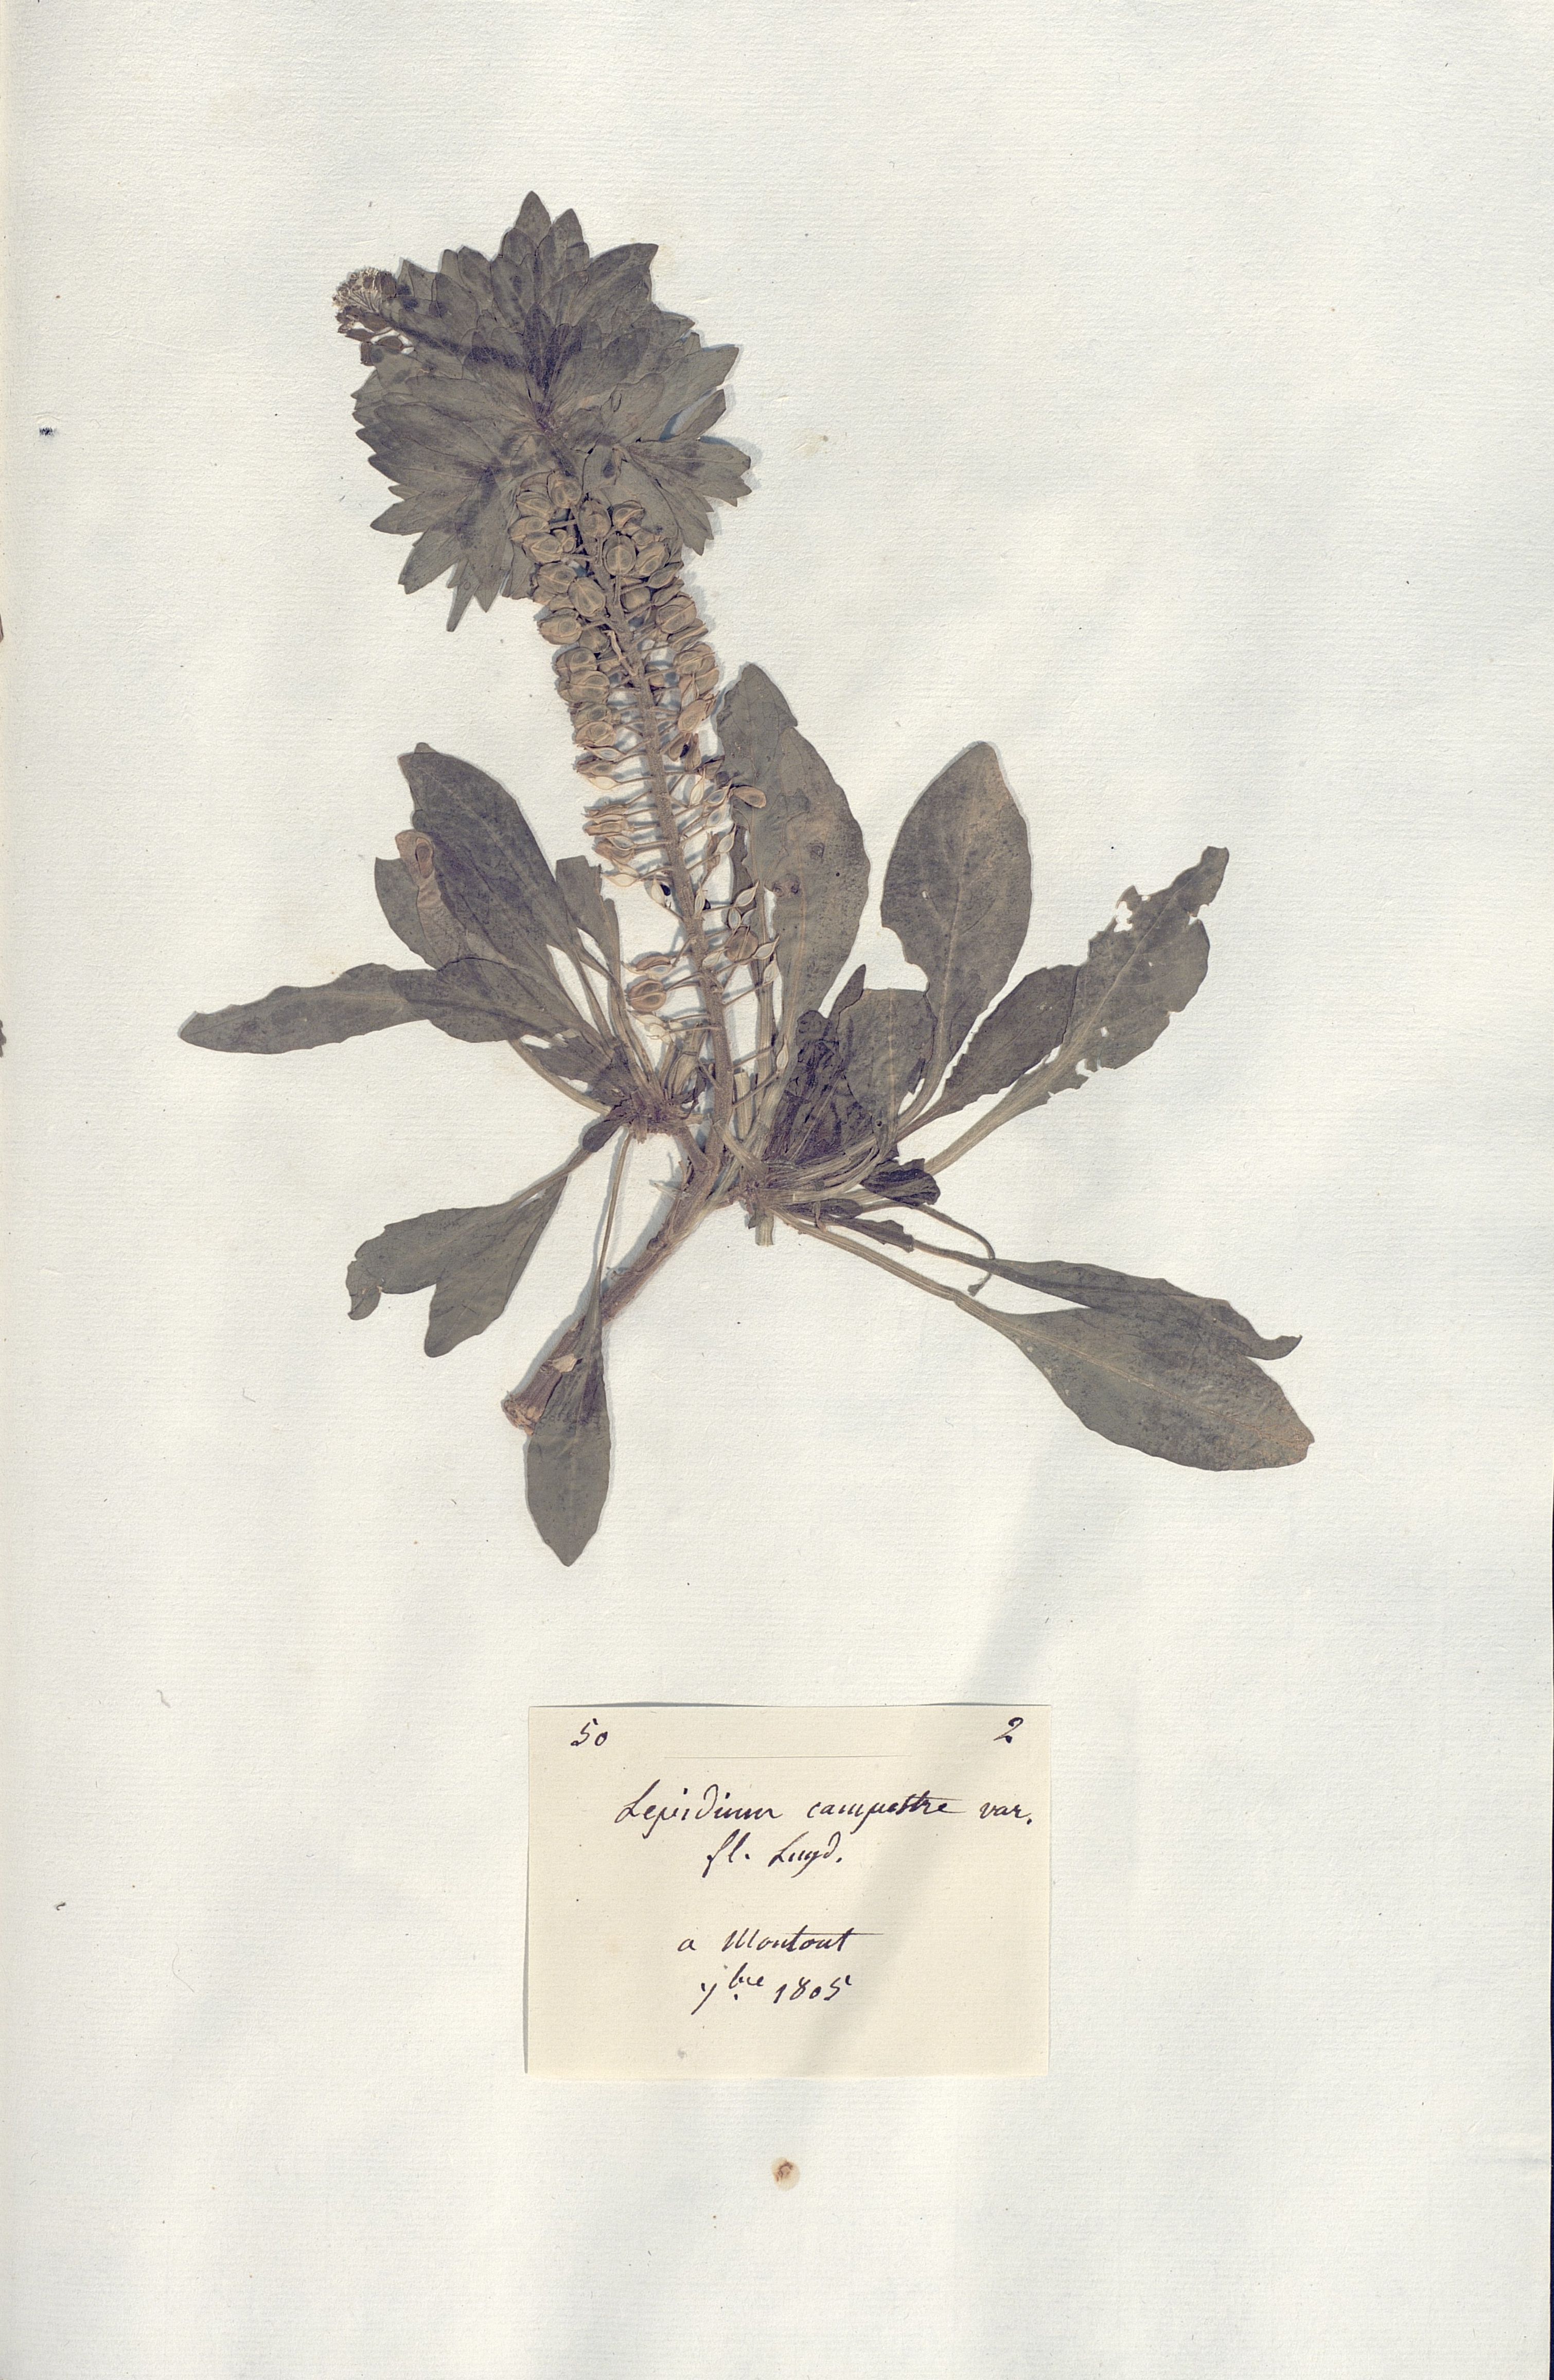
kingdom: Plantae
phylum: Tracheophyta
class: Magnoliopsida
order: Brassicales
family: Brassicaceae
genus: Lepidium
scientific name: Lepidium campestre
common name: Field pepperwort
